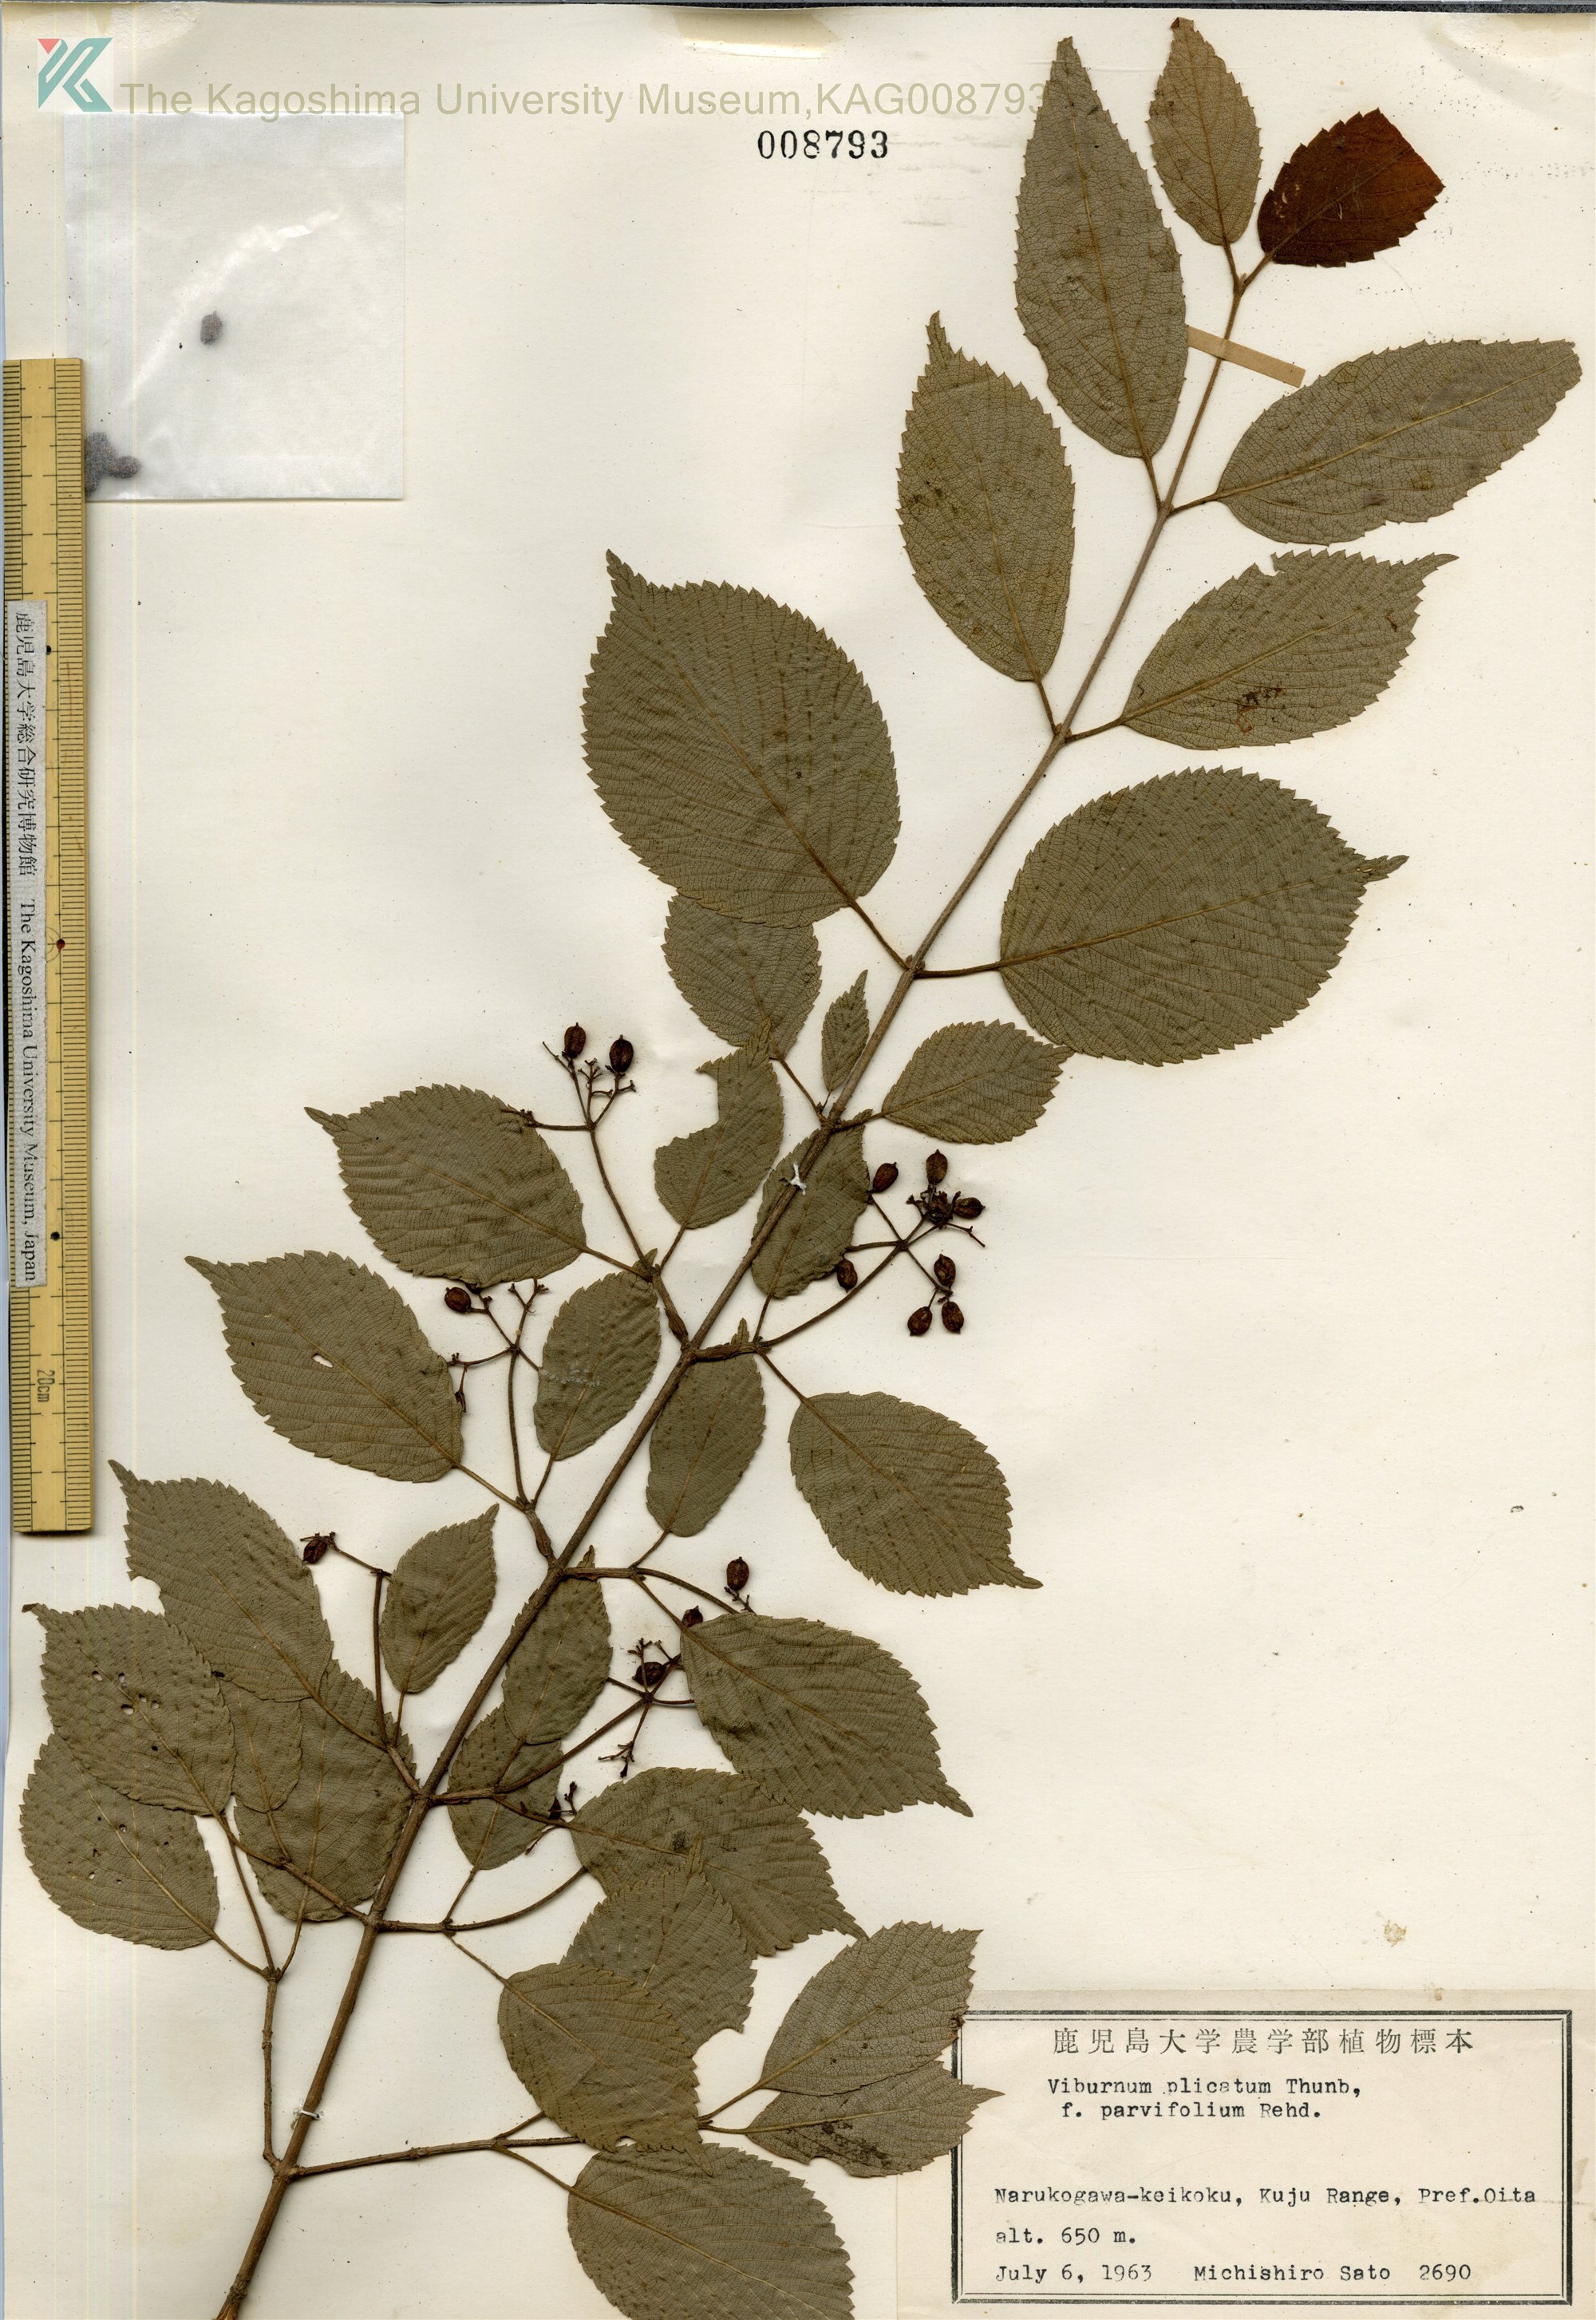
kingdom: Plantae
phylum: Tracheophyta
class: Magnoliopsida
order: Dipsacales
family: Viburnaceae
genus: Viburnum
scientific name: Viburnum plicatum
